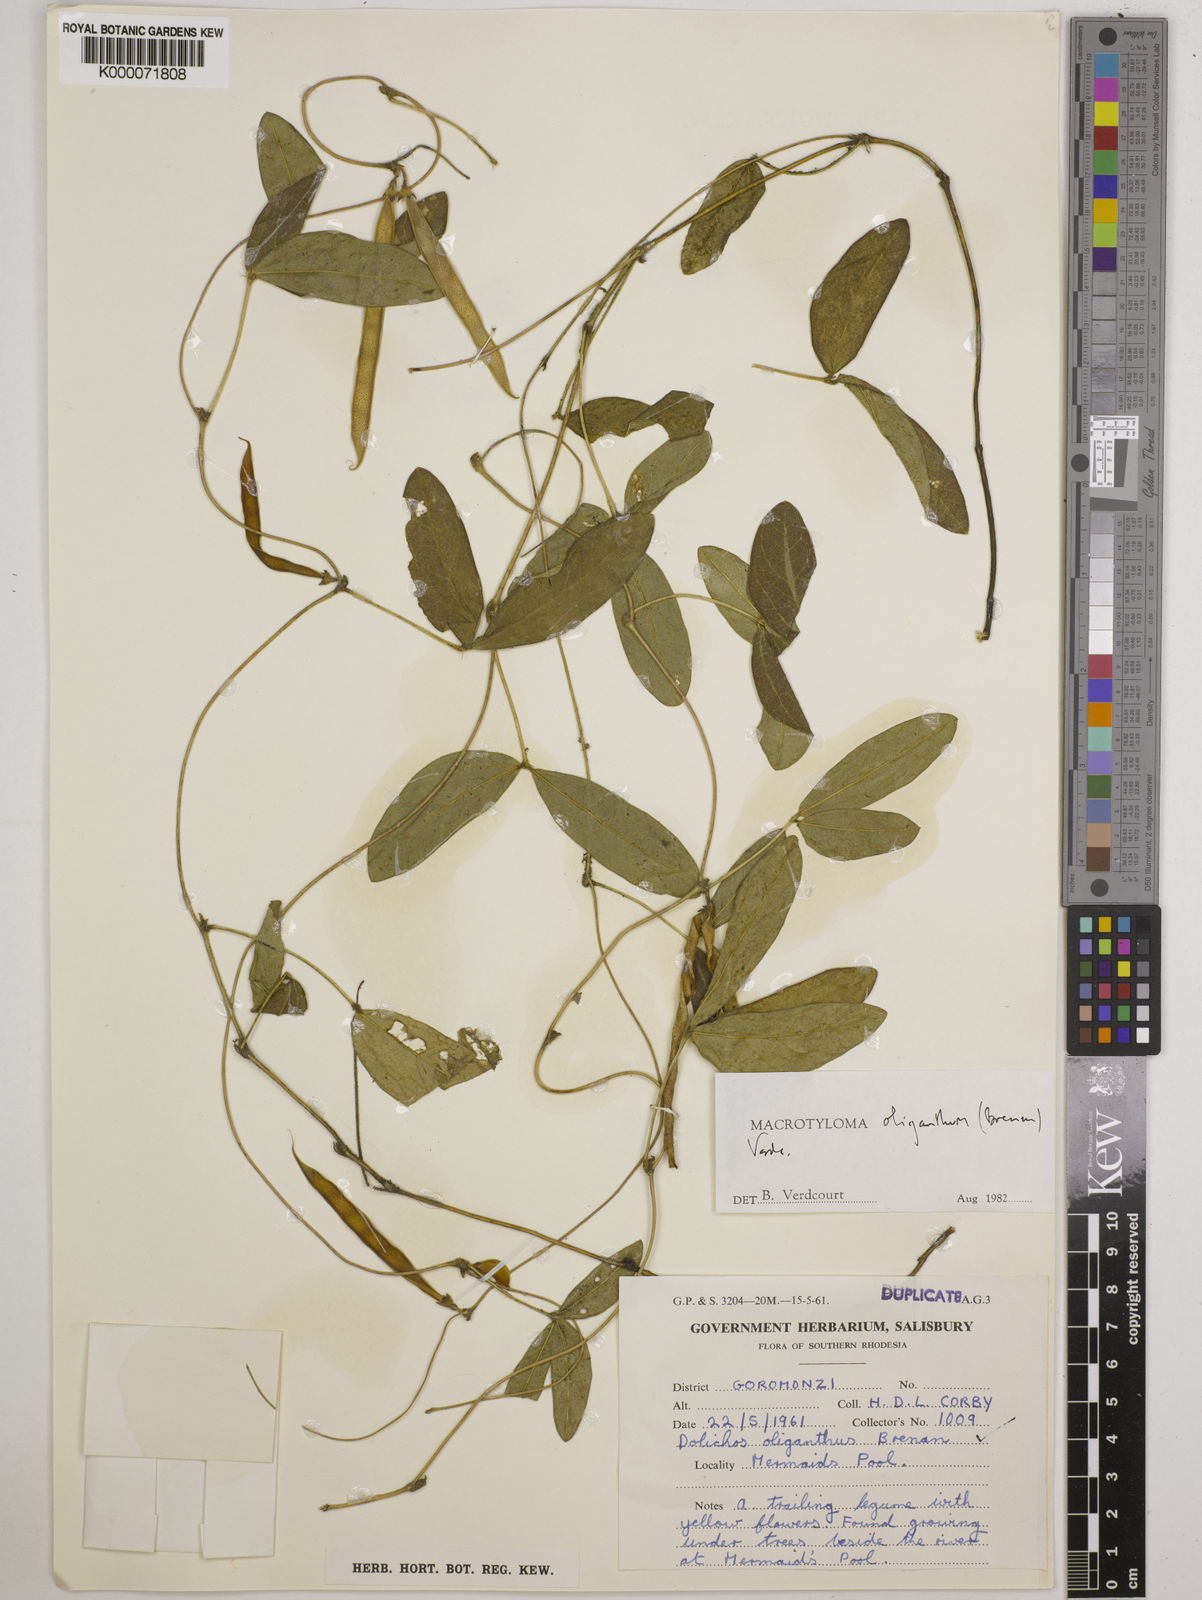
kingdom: Plantae
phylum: Tracheophyta
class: Magnoliopsida
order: Fabales
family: Fabaceae
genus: Macrotyloma
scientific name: Macrotyloma oliganthum
